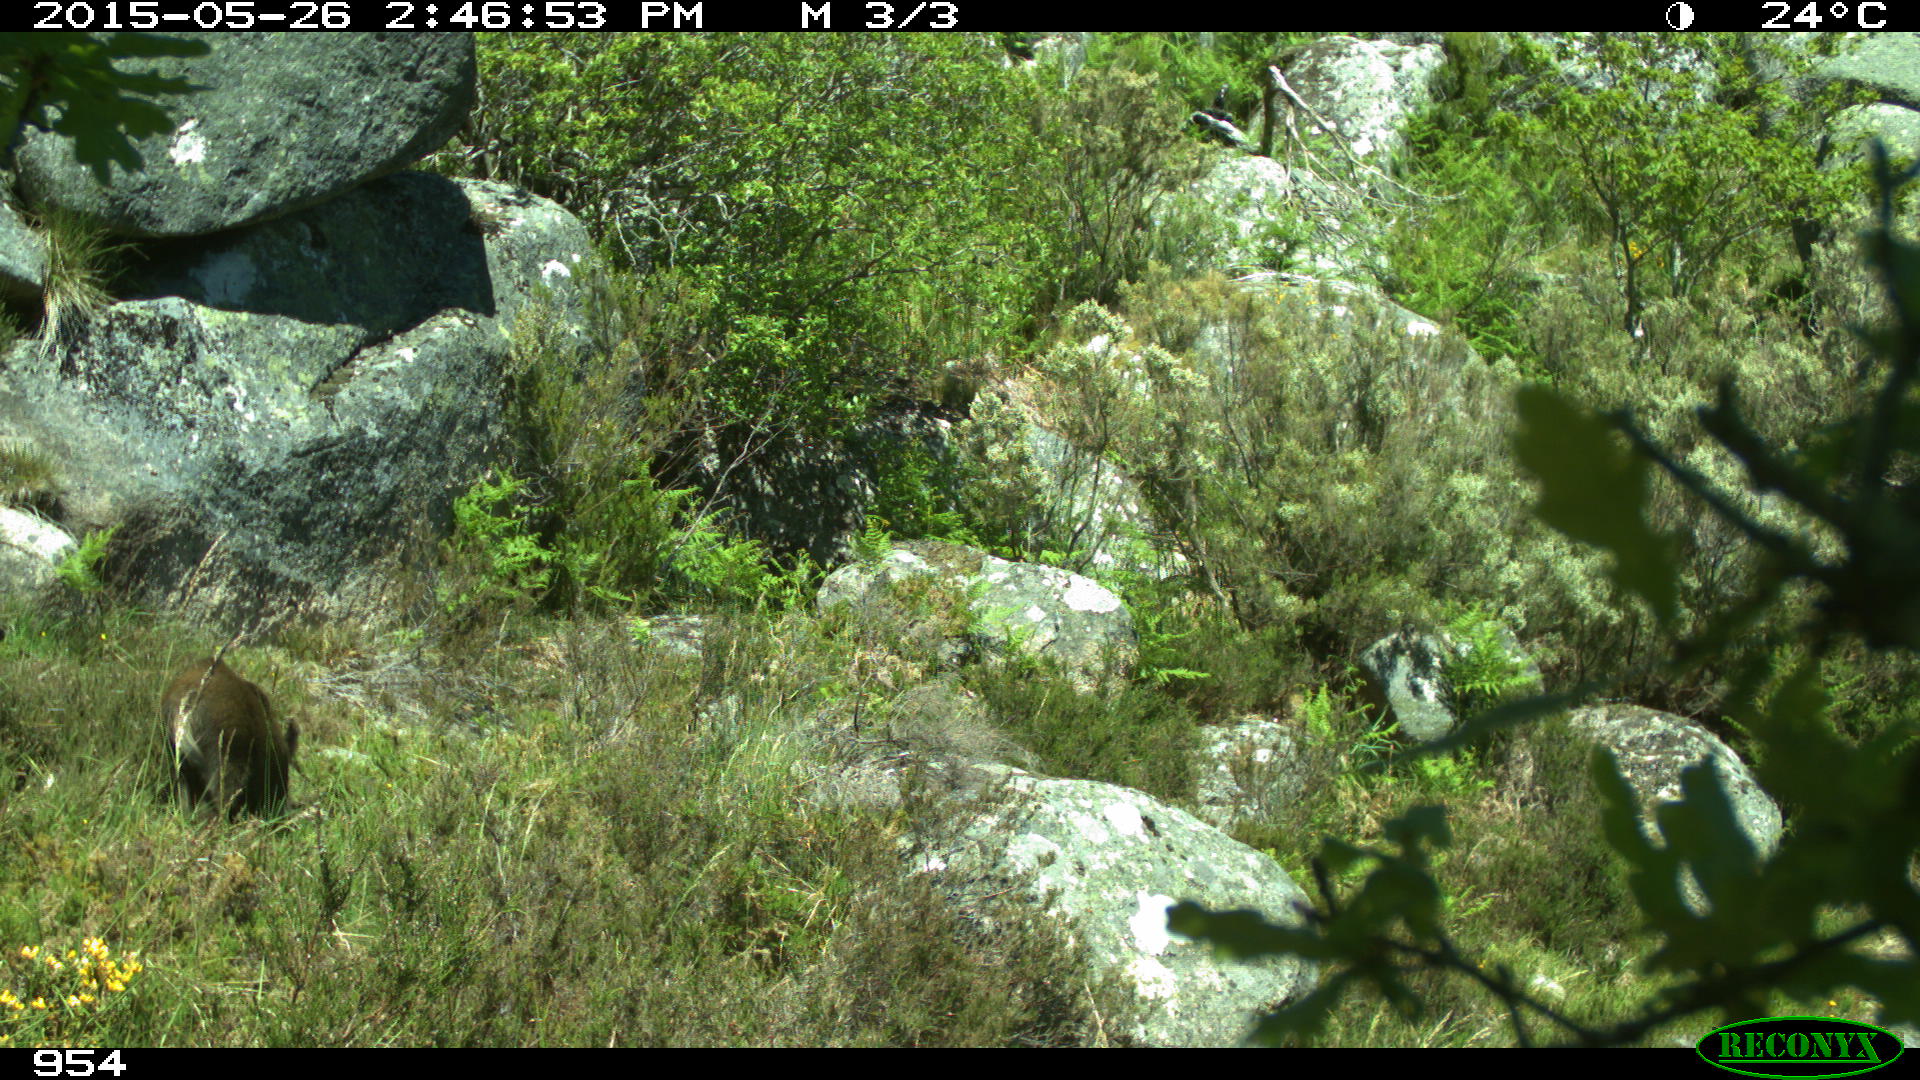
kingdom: Animalia
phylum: Chordata
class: Mammalia
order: Artiodactyla
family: Suidae
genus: Sus
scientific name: Sus scrofa
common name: Wild boar
